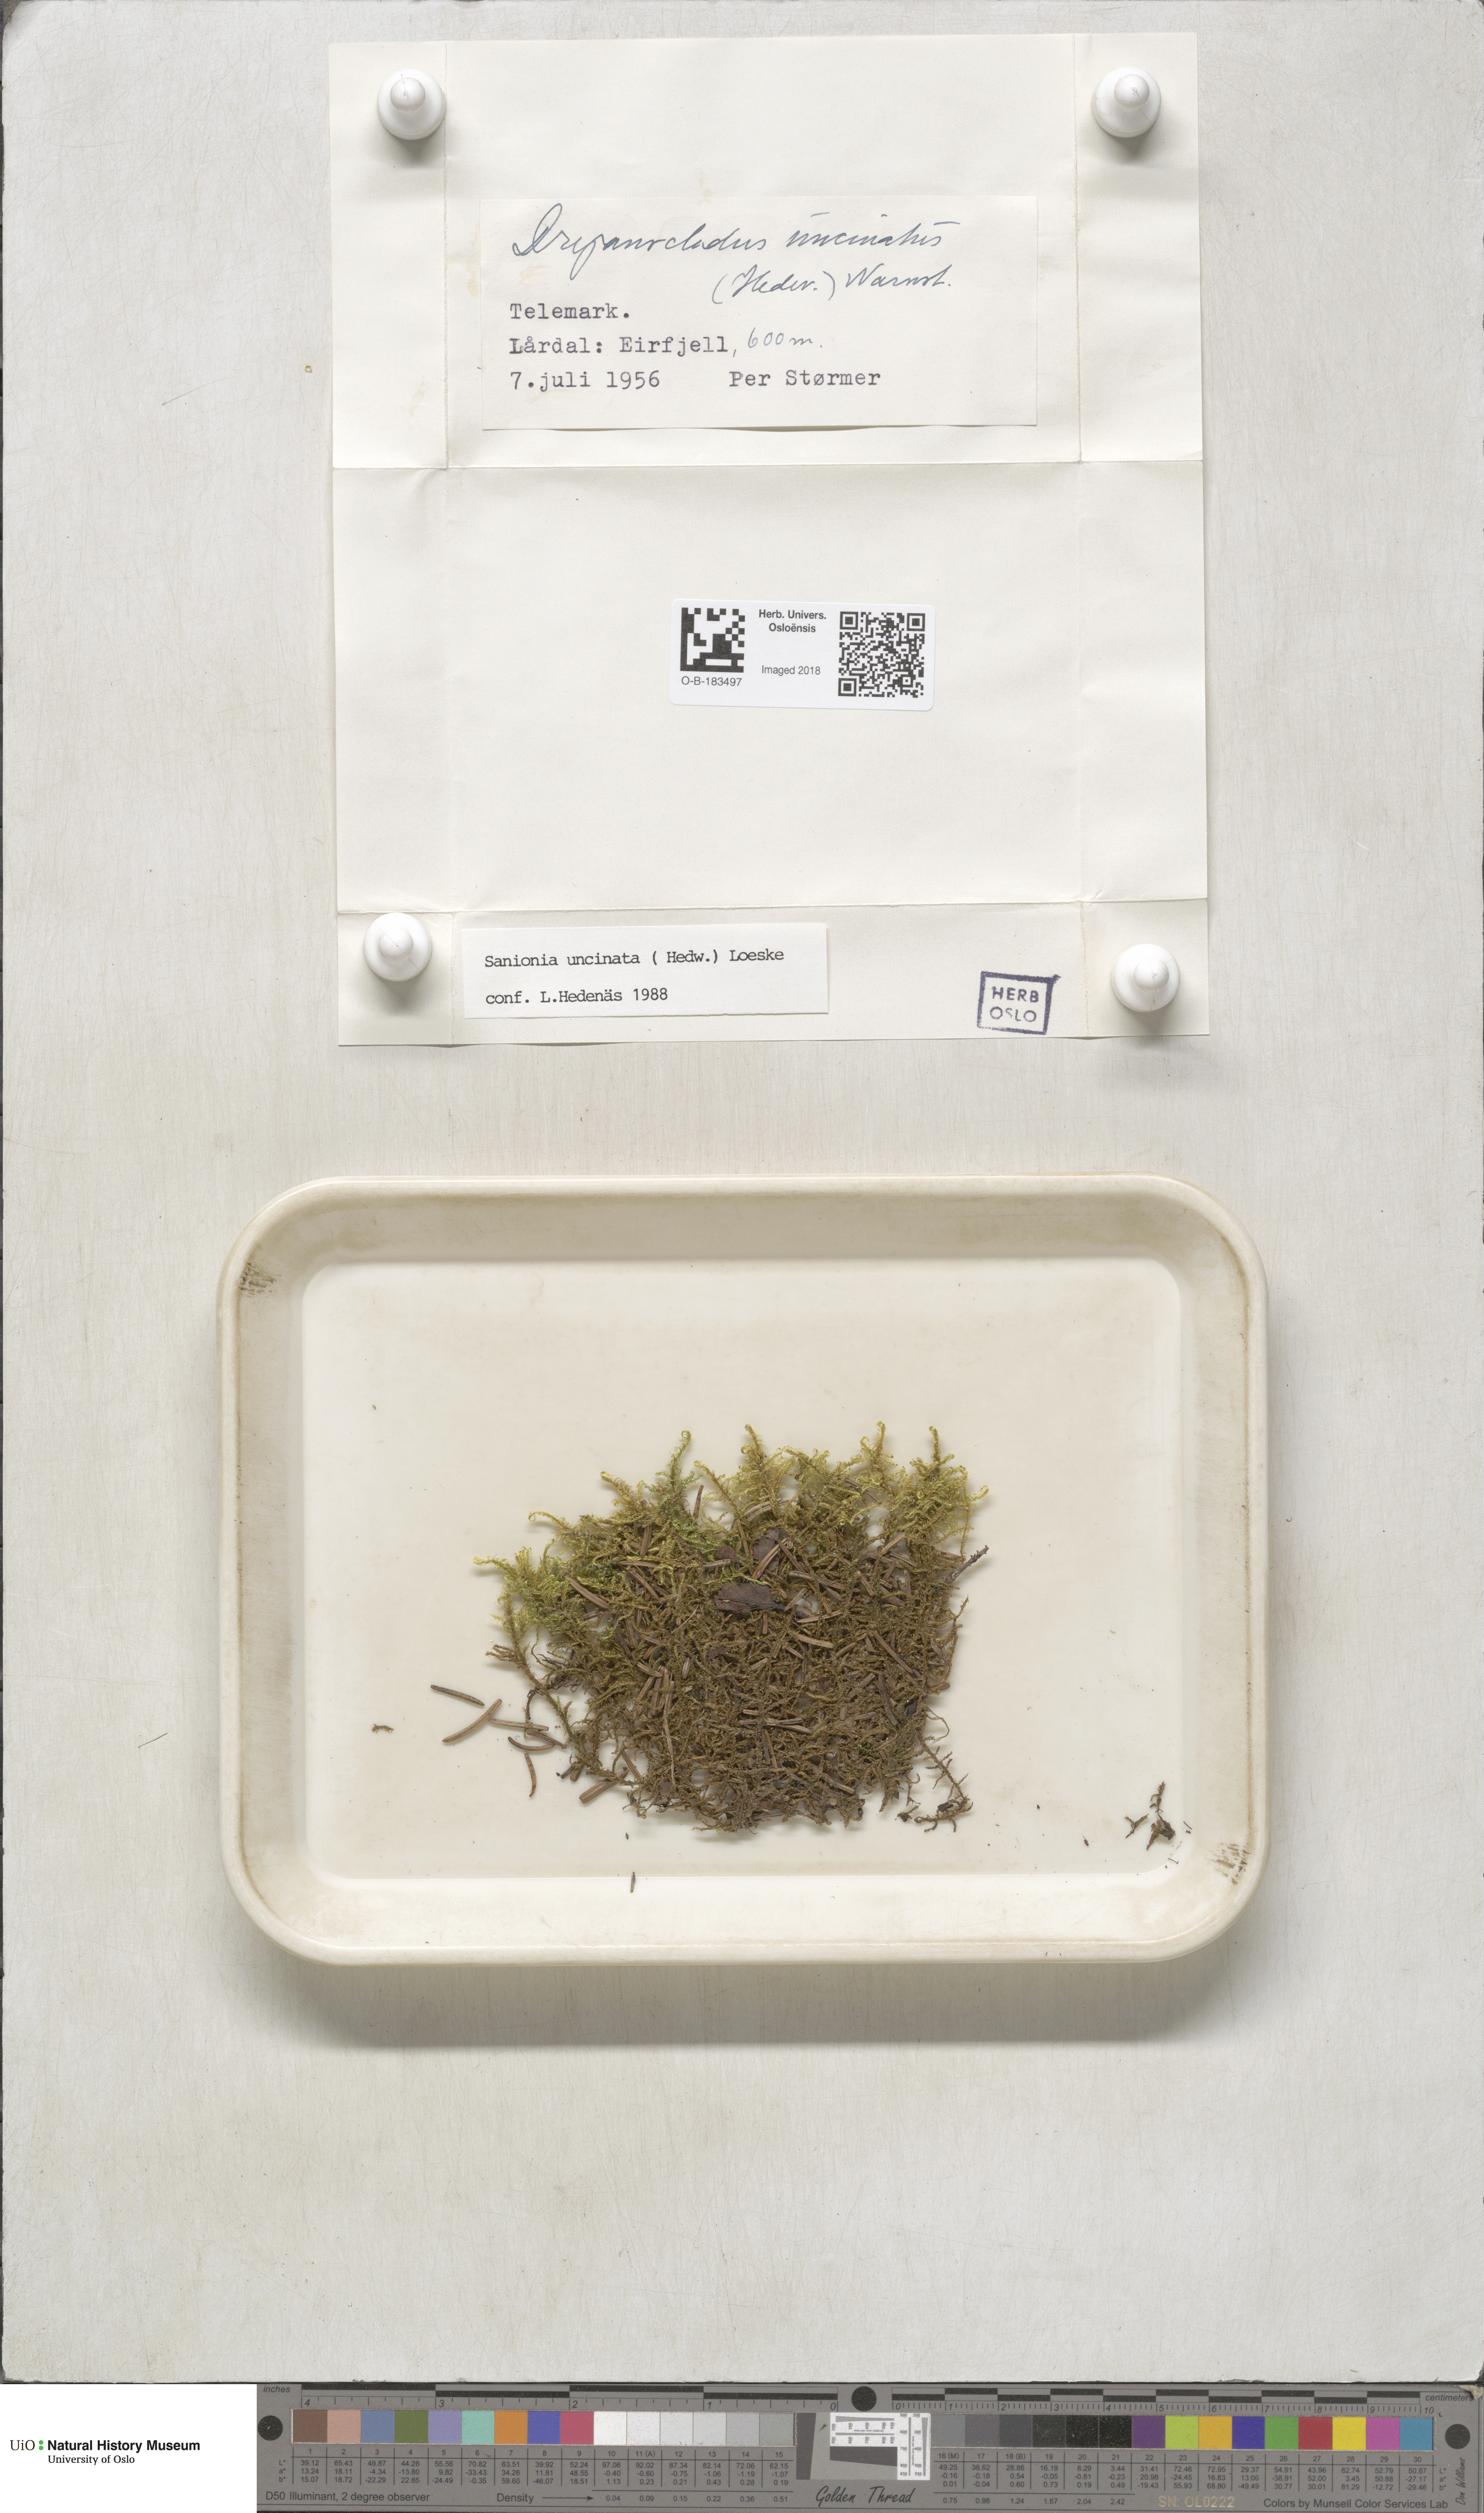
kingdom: Plantae
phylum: Bryophyta
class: Bryopsida
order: Hypnales
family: Scorpidiaceae
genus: Sanionia
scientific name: Sanionia uncinata
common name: Sickle moss
